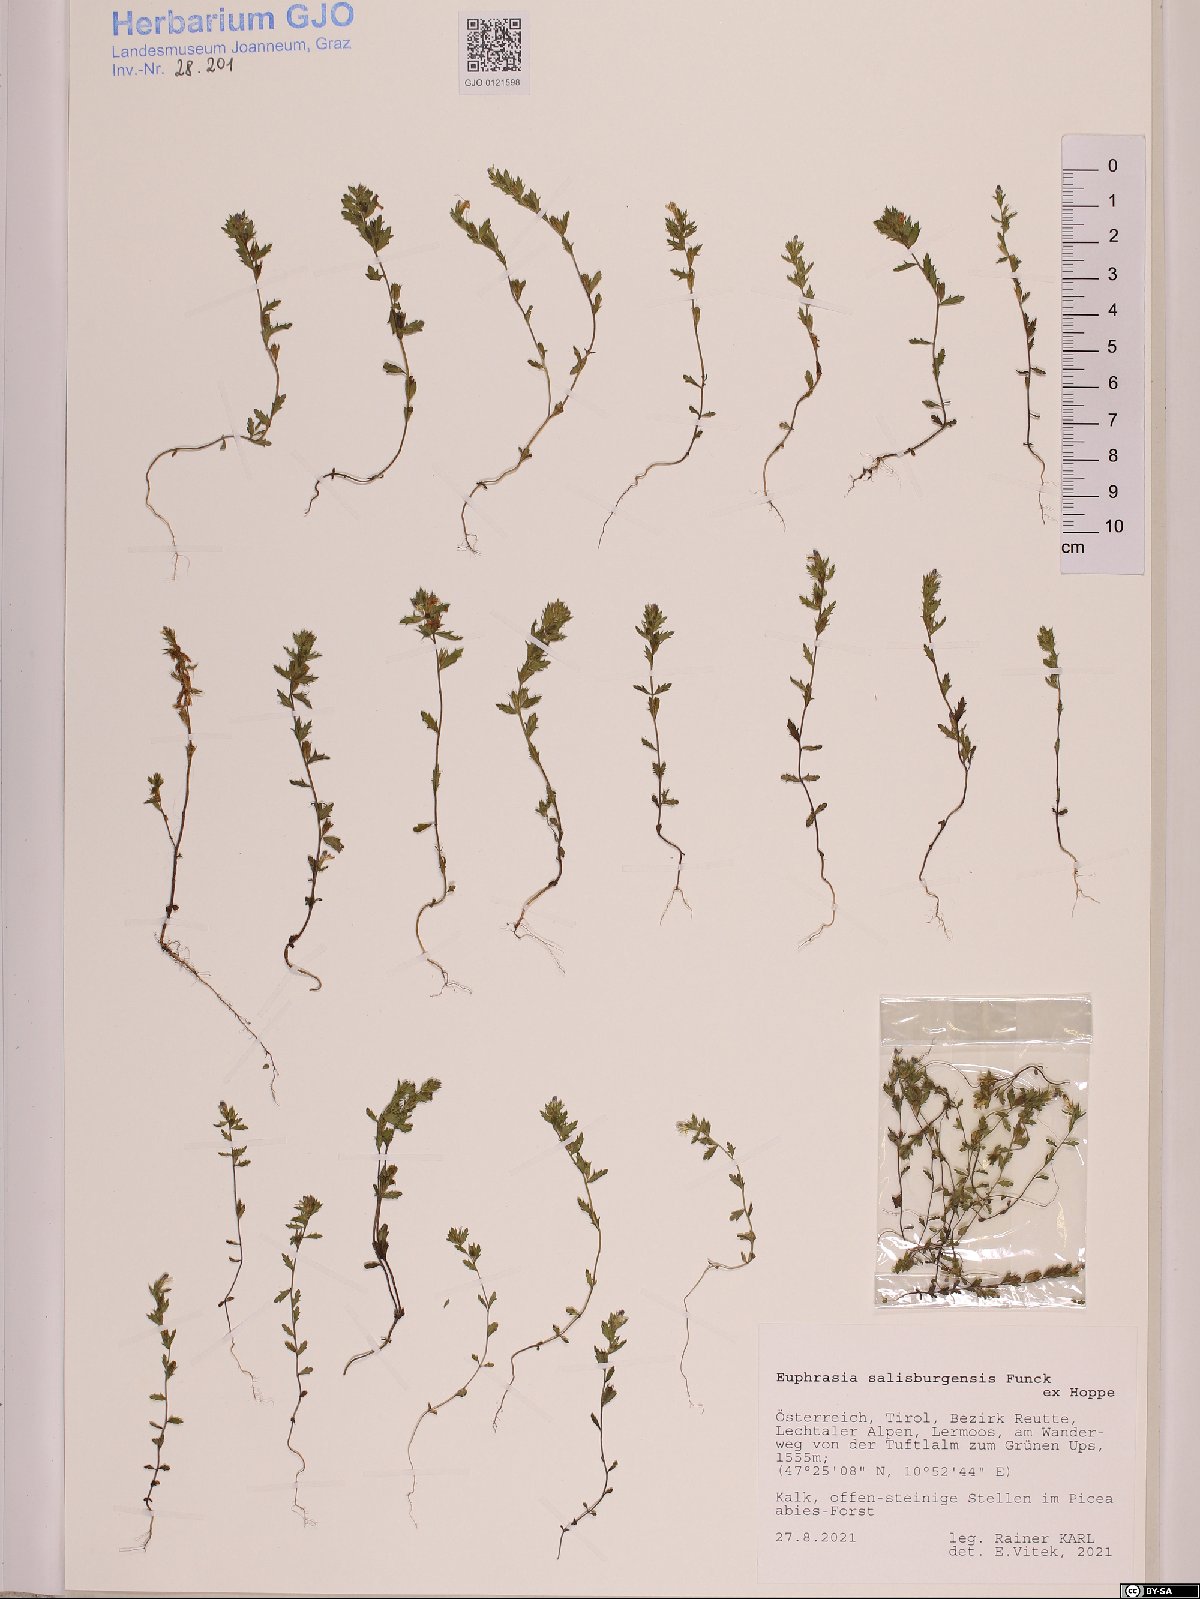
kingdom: Plantae
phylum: Tracheophyta
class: Magnoliopsida
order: Lamiales
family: Orobanchaceae
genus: Euphrasia
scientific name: Euphrasia salisburgensis
